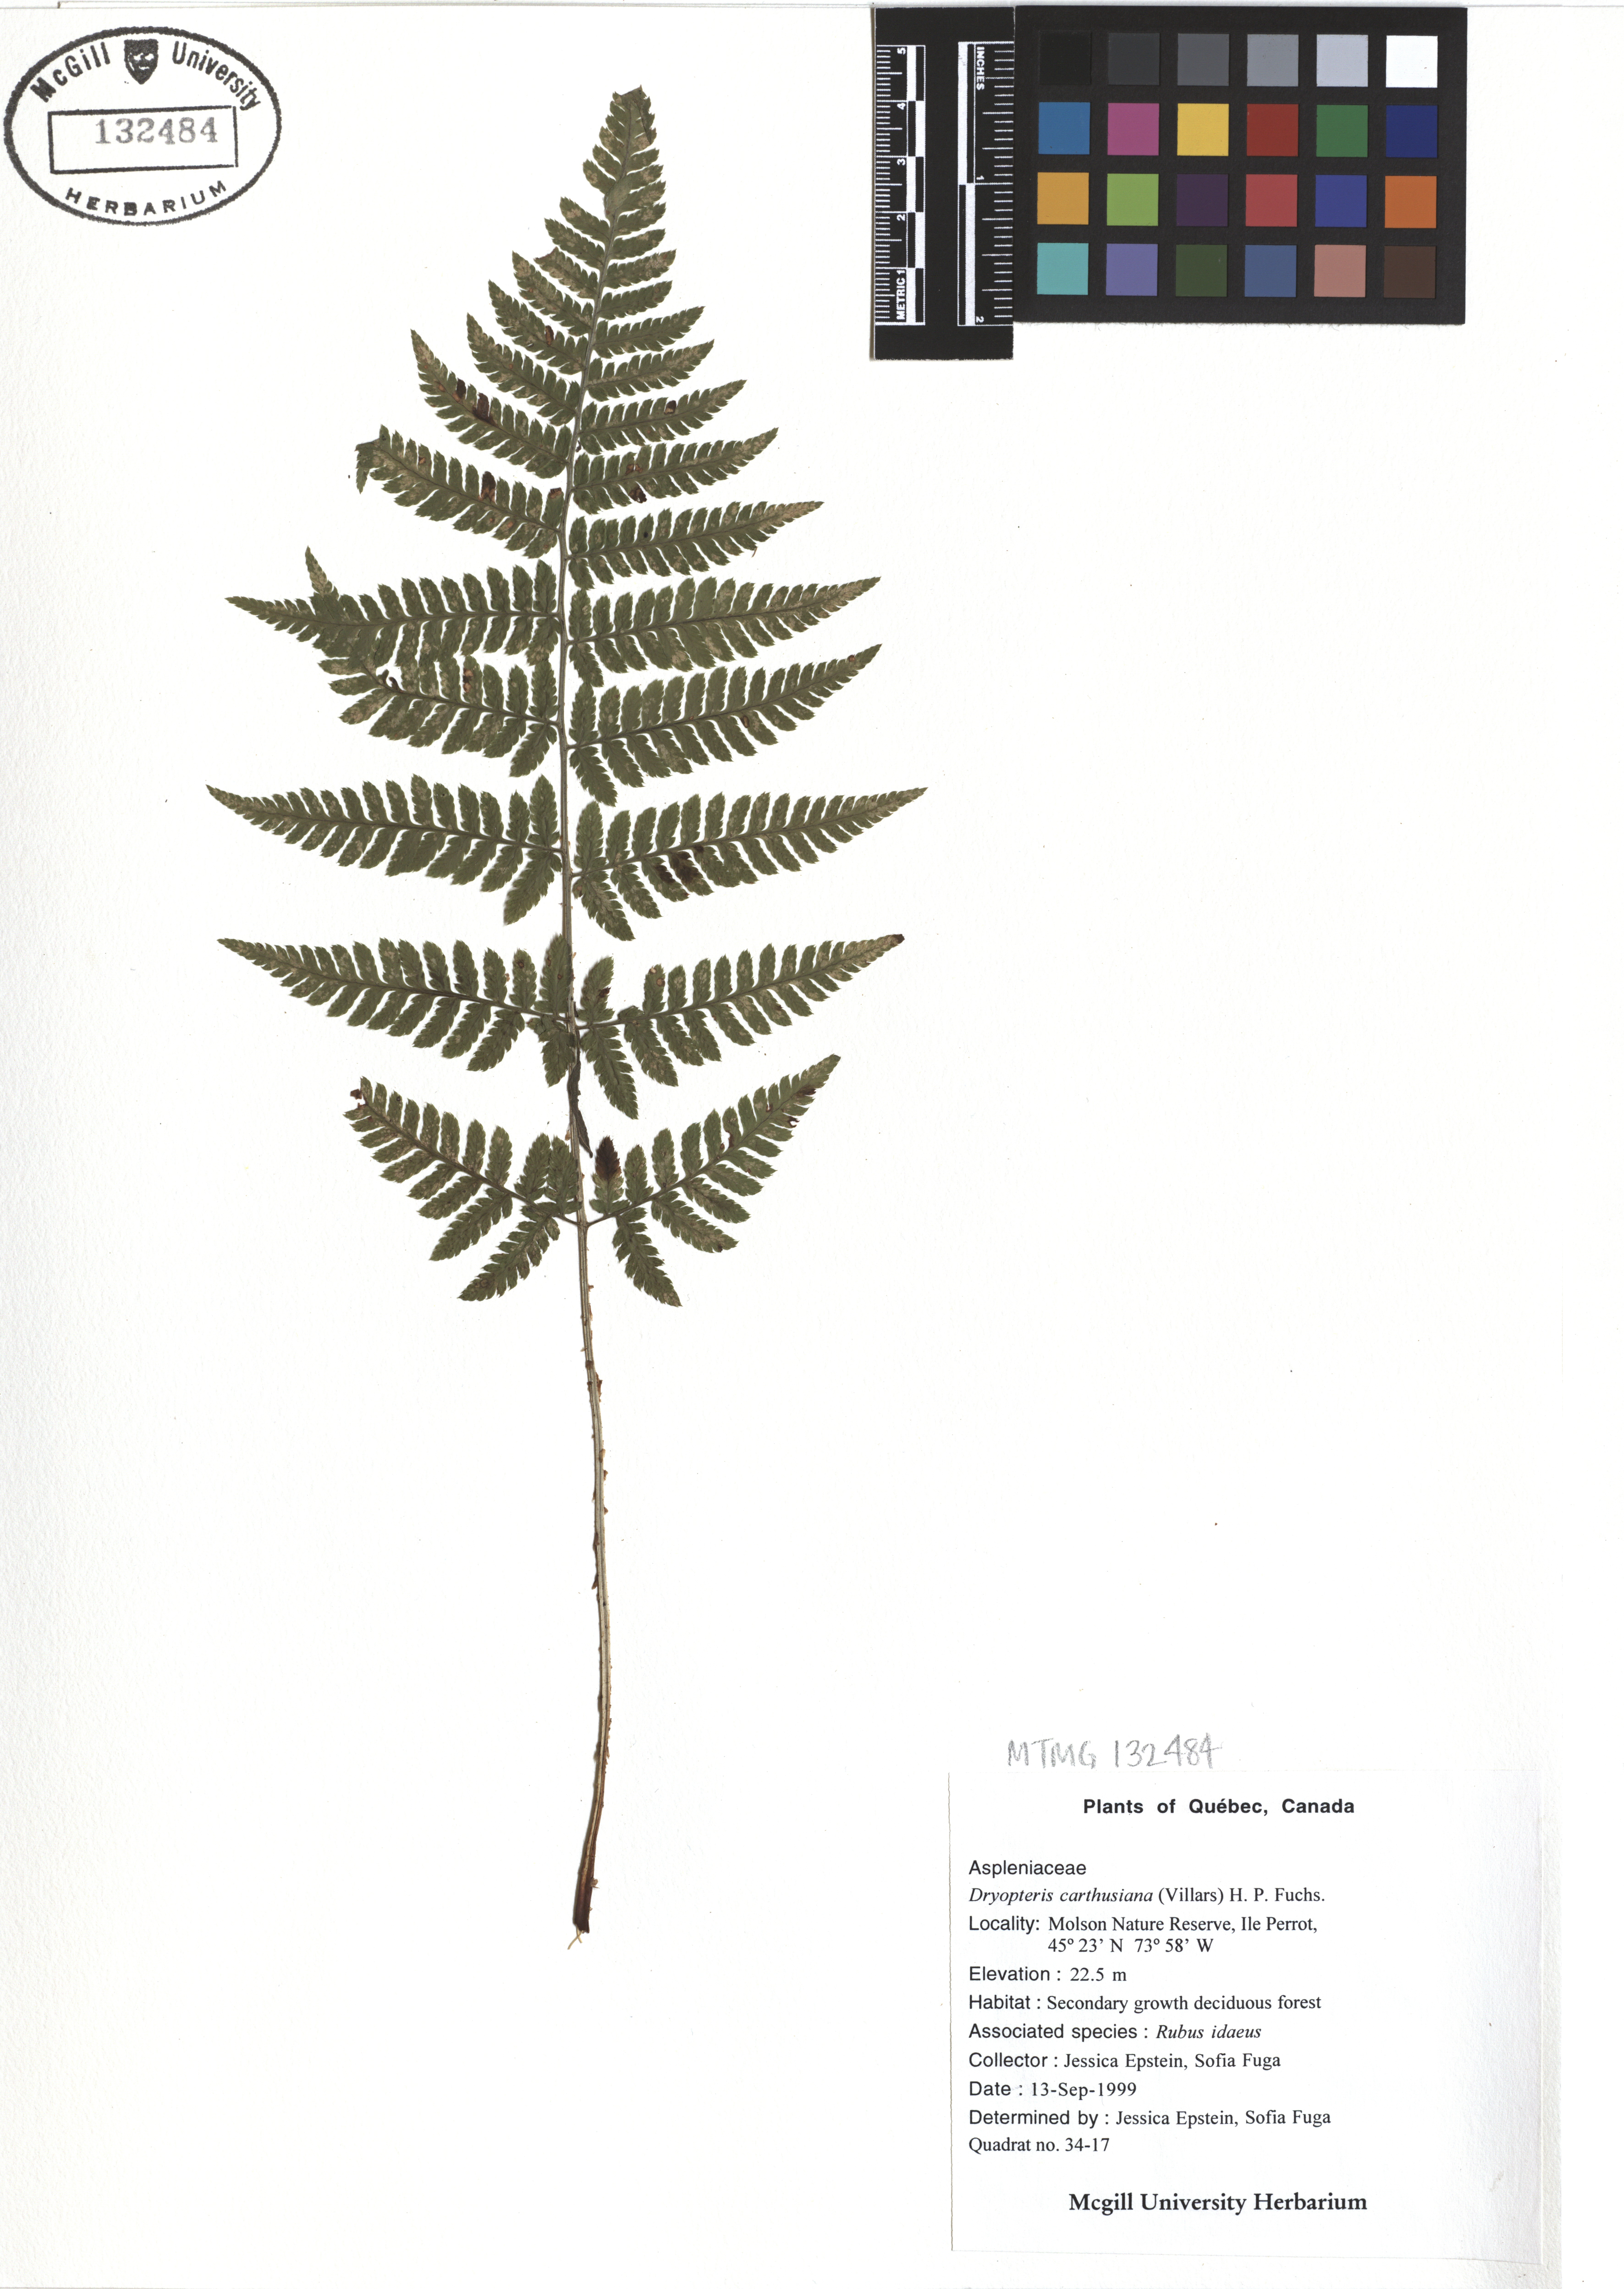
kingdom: Plantae
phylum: Tracheophyta
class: Polypodiopsida
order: Polypodiales
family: Dryopteridaceae
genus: Dryopteris
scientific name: Dryopteris carthusiana
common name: Narrow buckler-fern
